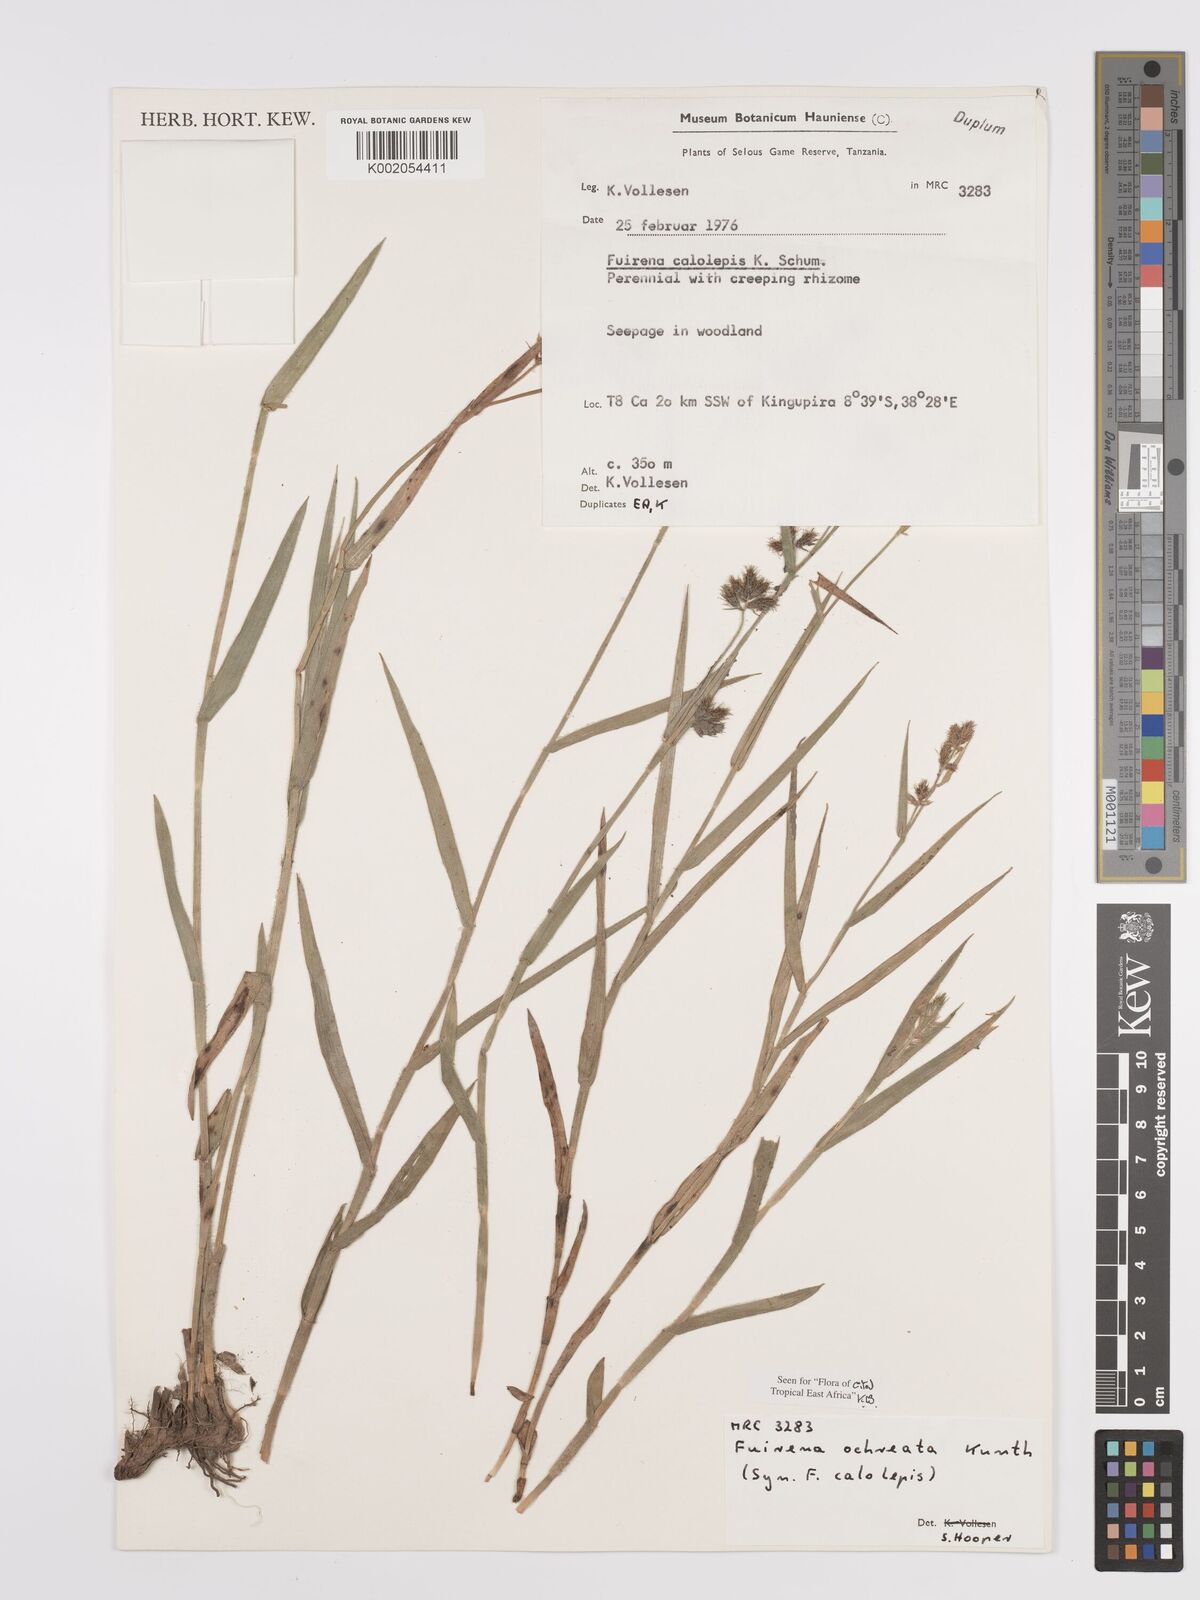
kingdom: Plantae
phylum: Tracheophyta
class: Liliopsida
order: Poales
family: Cyperaceae
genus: Fuirena
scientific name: Fuirena ochreata
